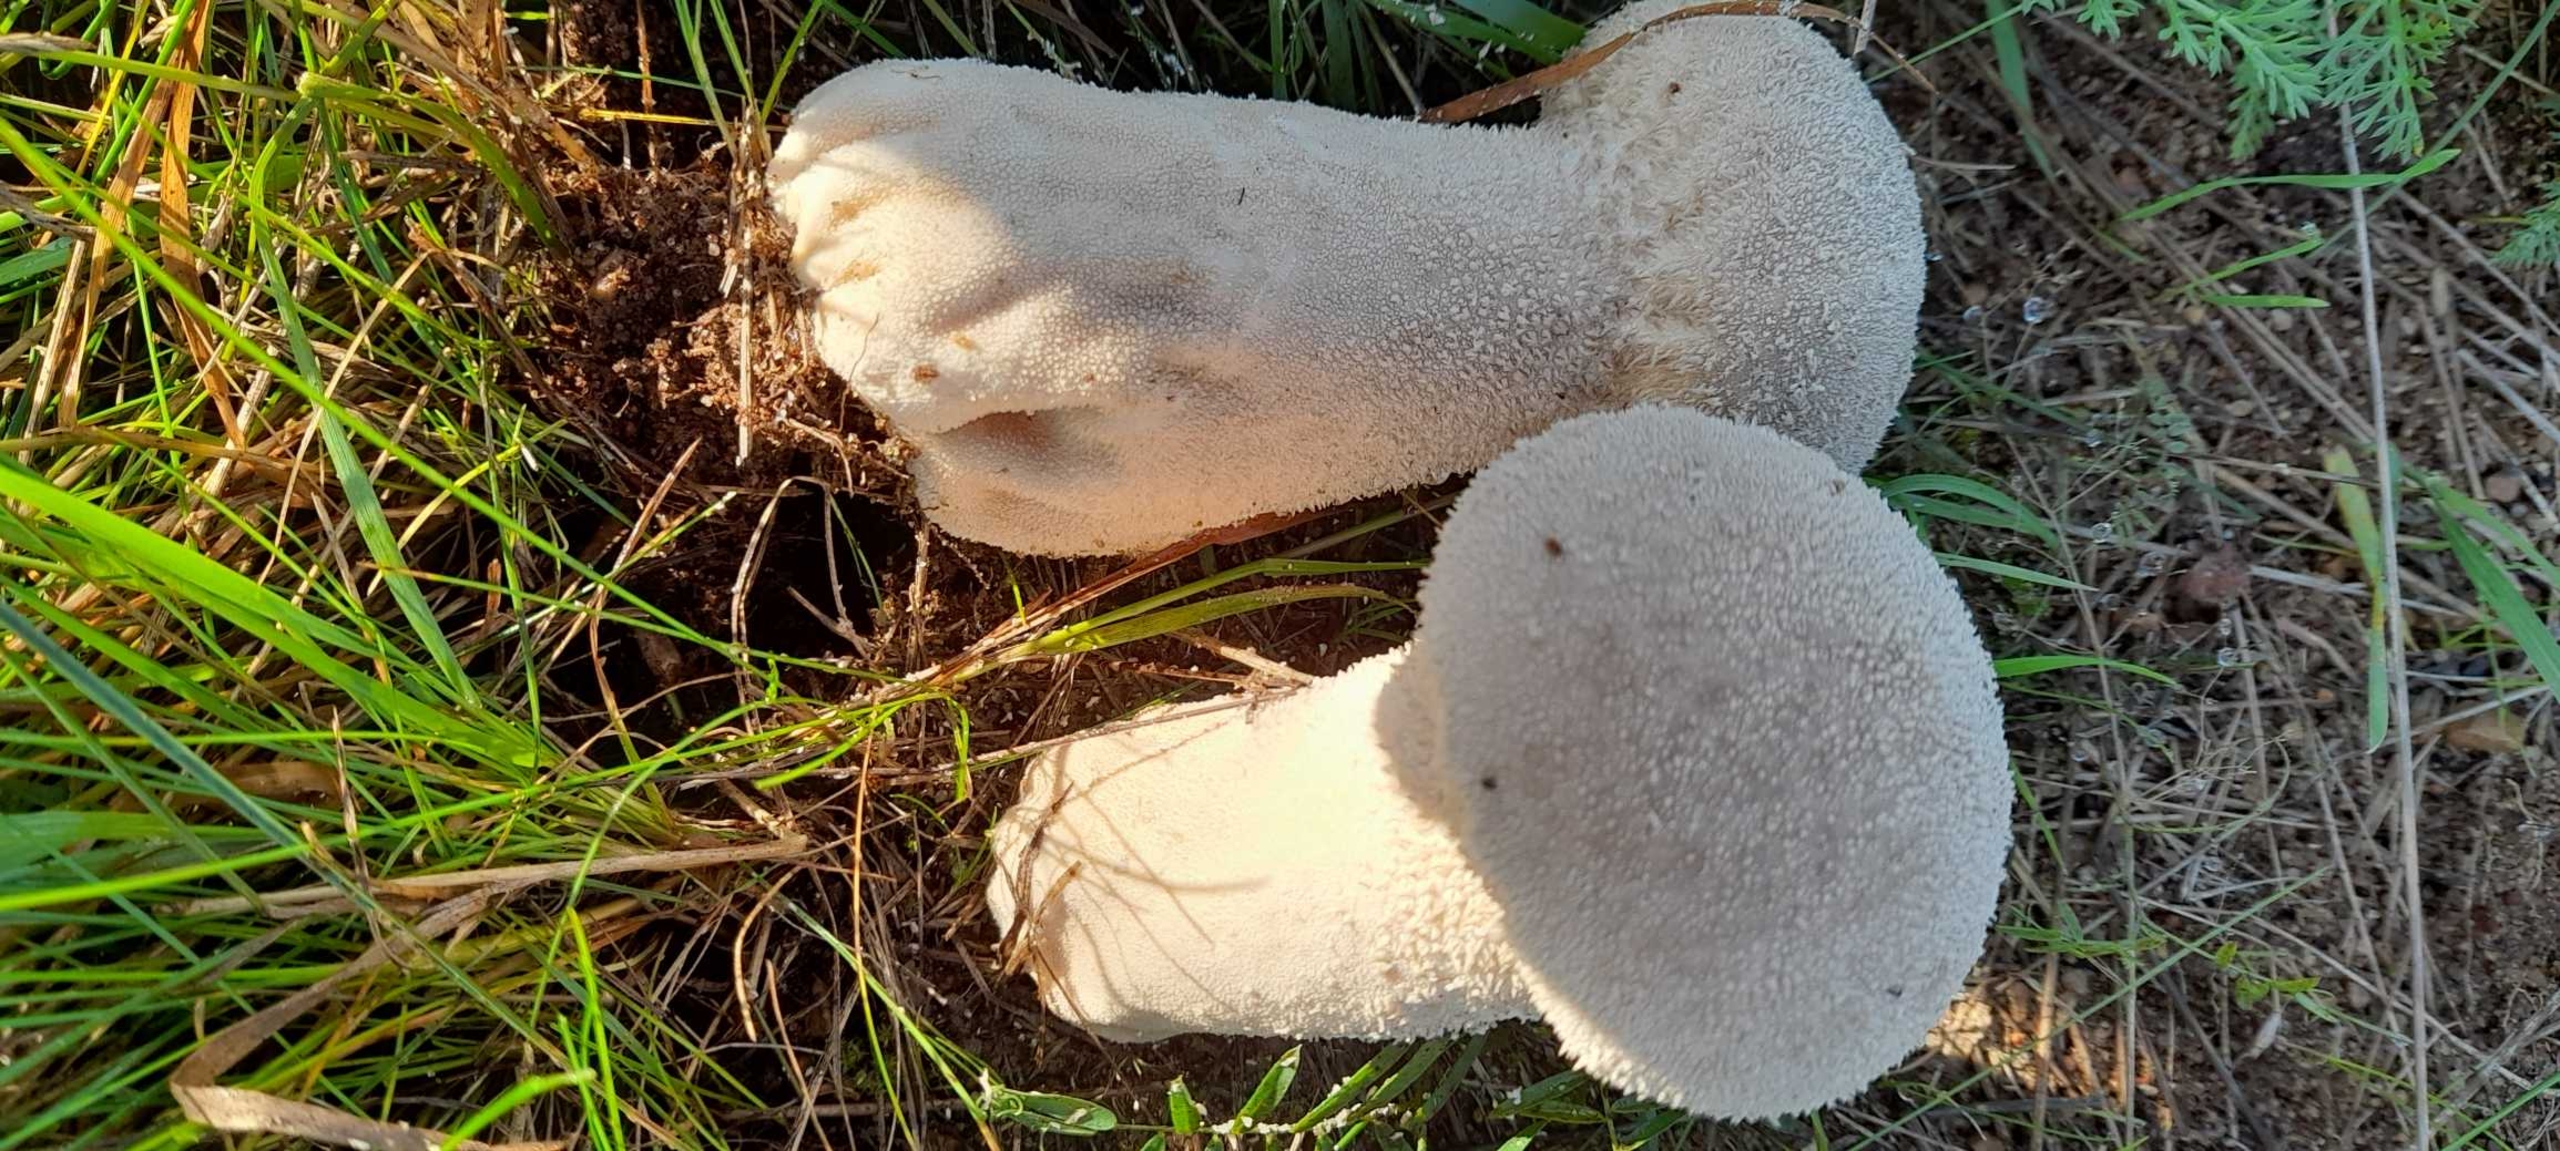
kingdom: Fungi
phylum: Basidiomycota
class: Agaricomycetes
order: Agaricales
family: Lycoperdaceae
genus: Lycoperdon
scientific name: Lycoperdon excipuliforme
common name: Højstokket støvbold
